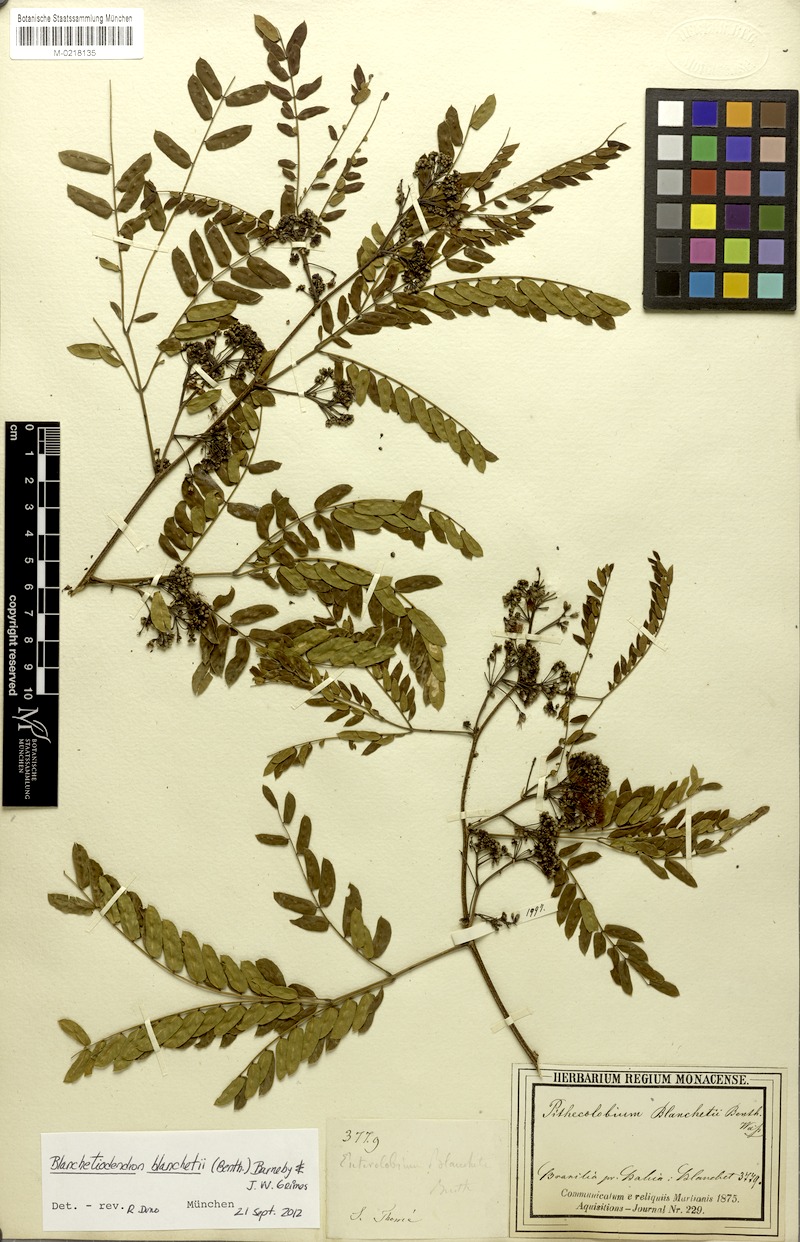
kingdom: Plantae
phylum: Tracheophyta
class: Magnoliopsida
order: Fabales
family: Fabaceae
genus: Blanchetiodendron
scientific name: Blanchetiodendron blanchetii
